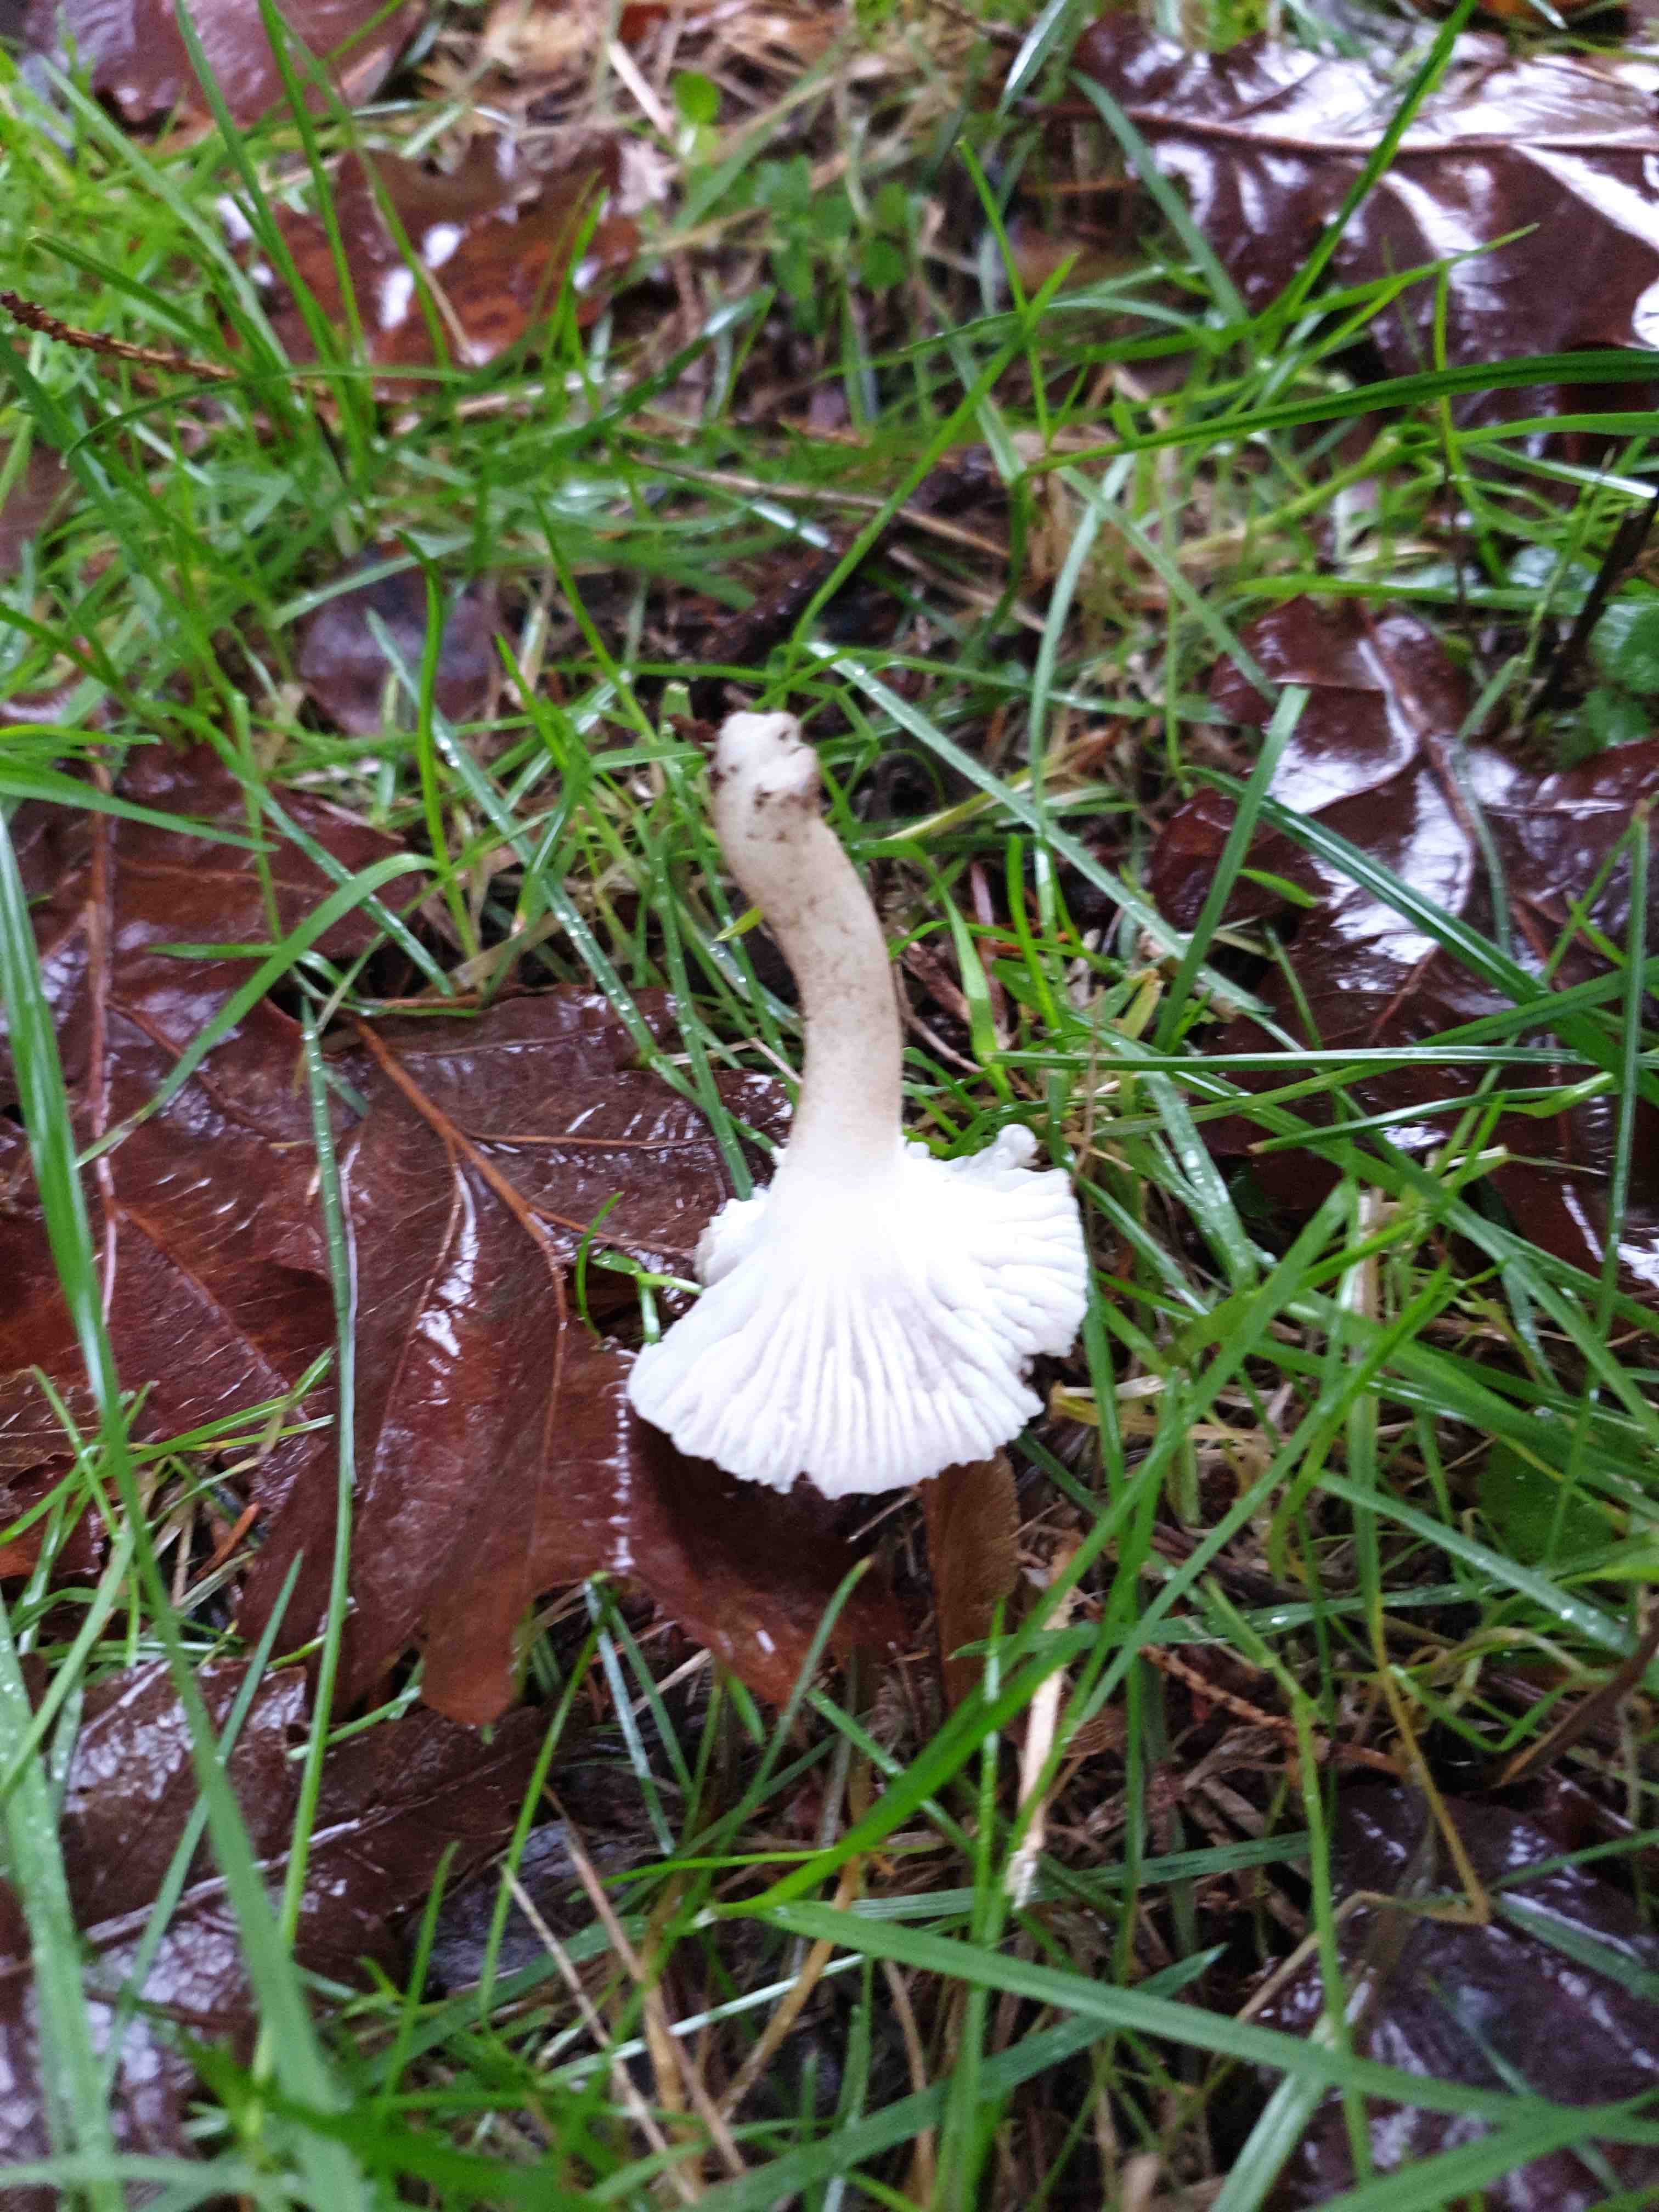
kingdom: Fungi
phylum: Basidiomycota
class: Agaricomycetes
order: Agaricales
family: Hygrophoraceae
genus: Hygrophorus
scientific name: Hygrophorus pustulatus
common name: mørkprikket sneglehat
